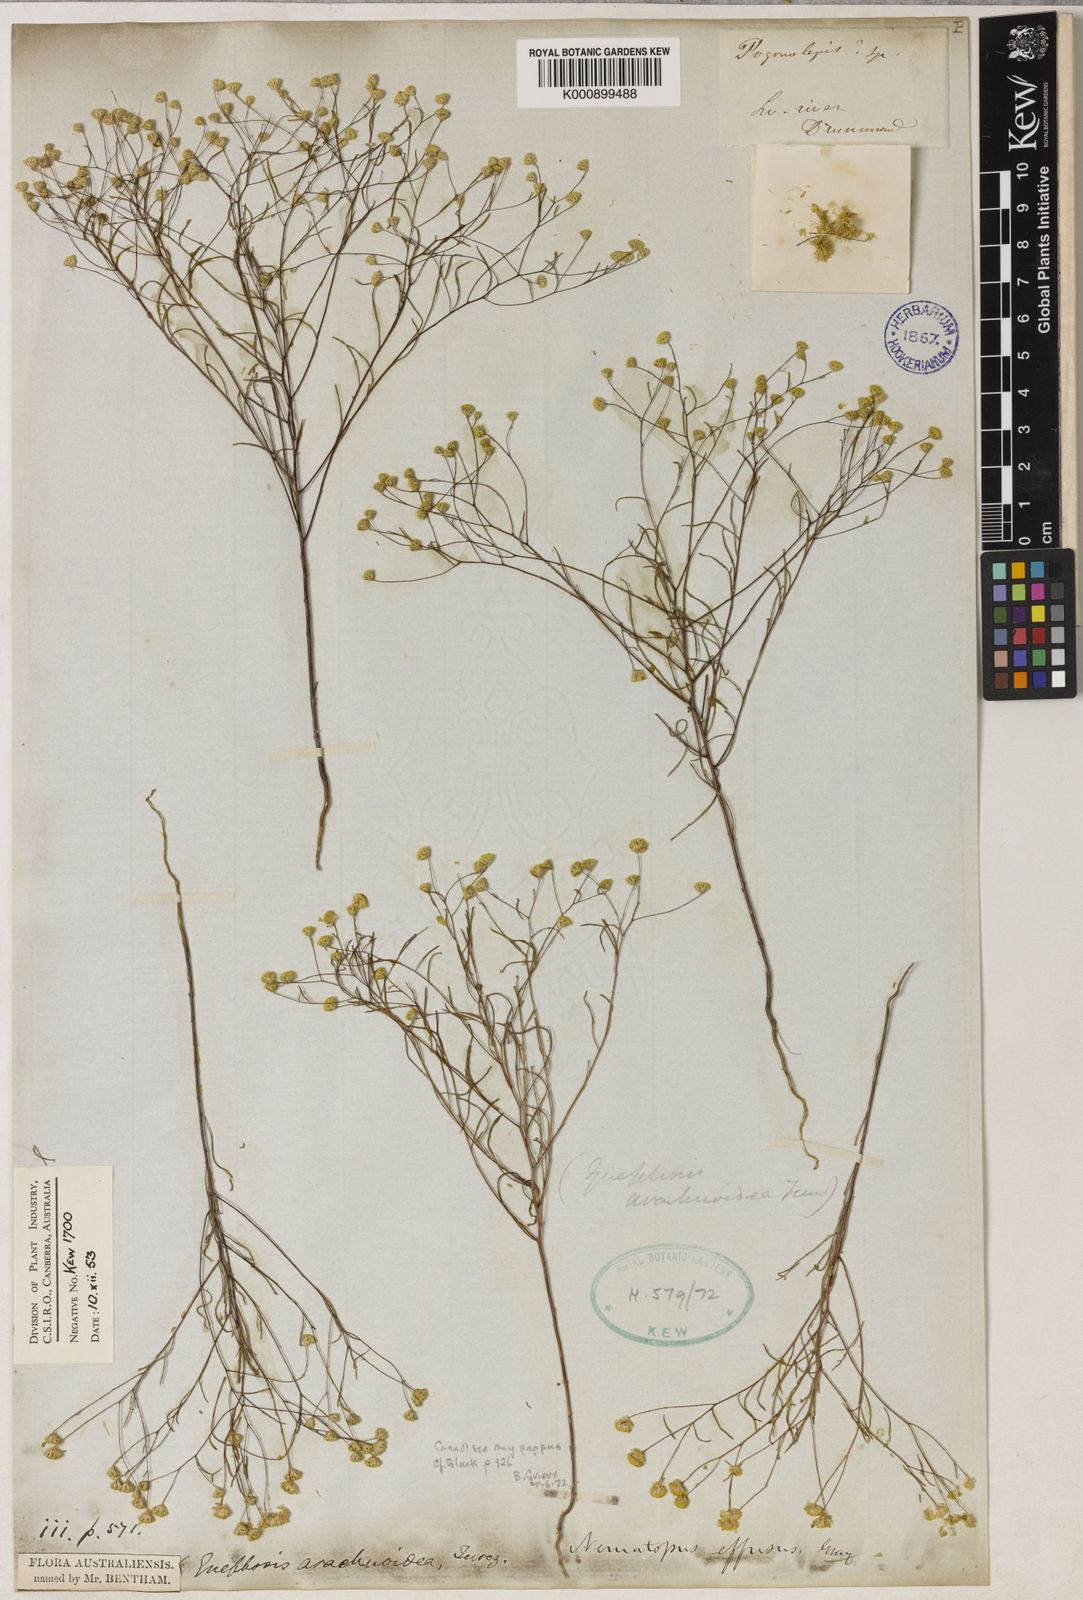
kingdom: Plantae
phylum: Tracheophyta
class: Magnoliopsida
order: Asterales
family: Asteraceae
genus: Gnephosis
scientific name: Gnephosis arachnoidea
